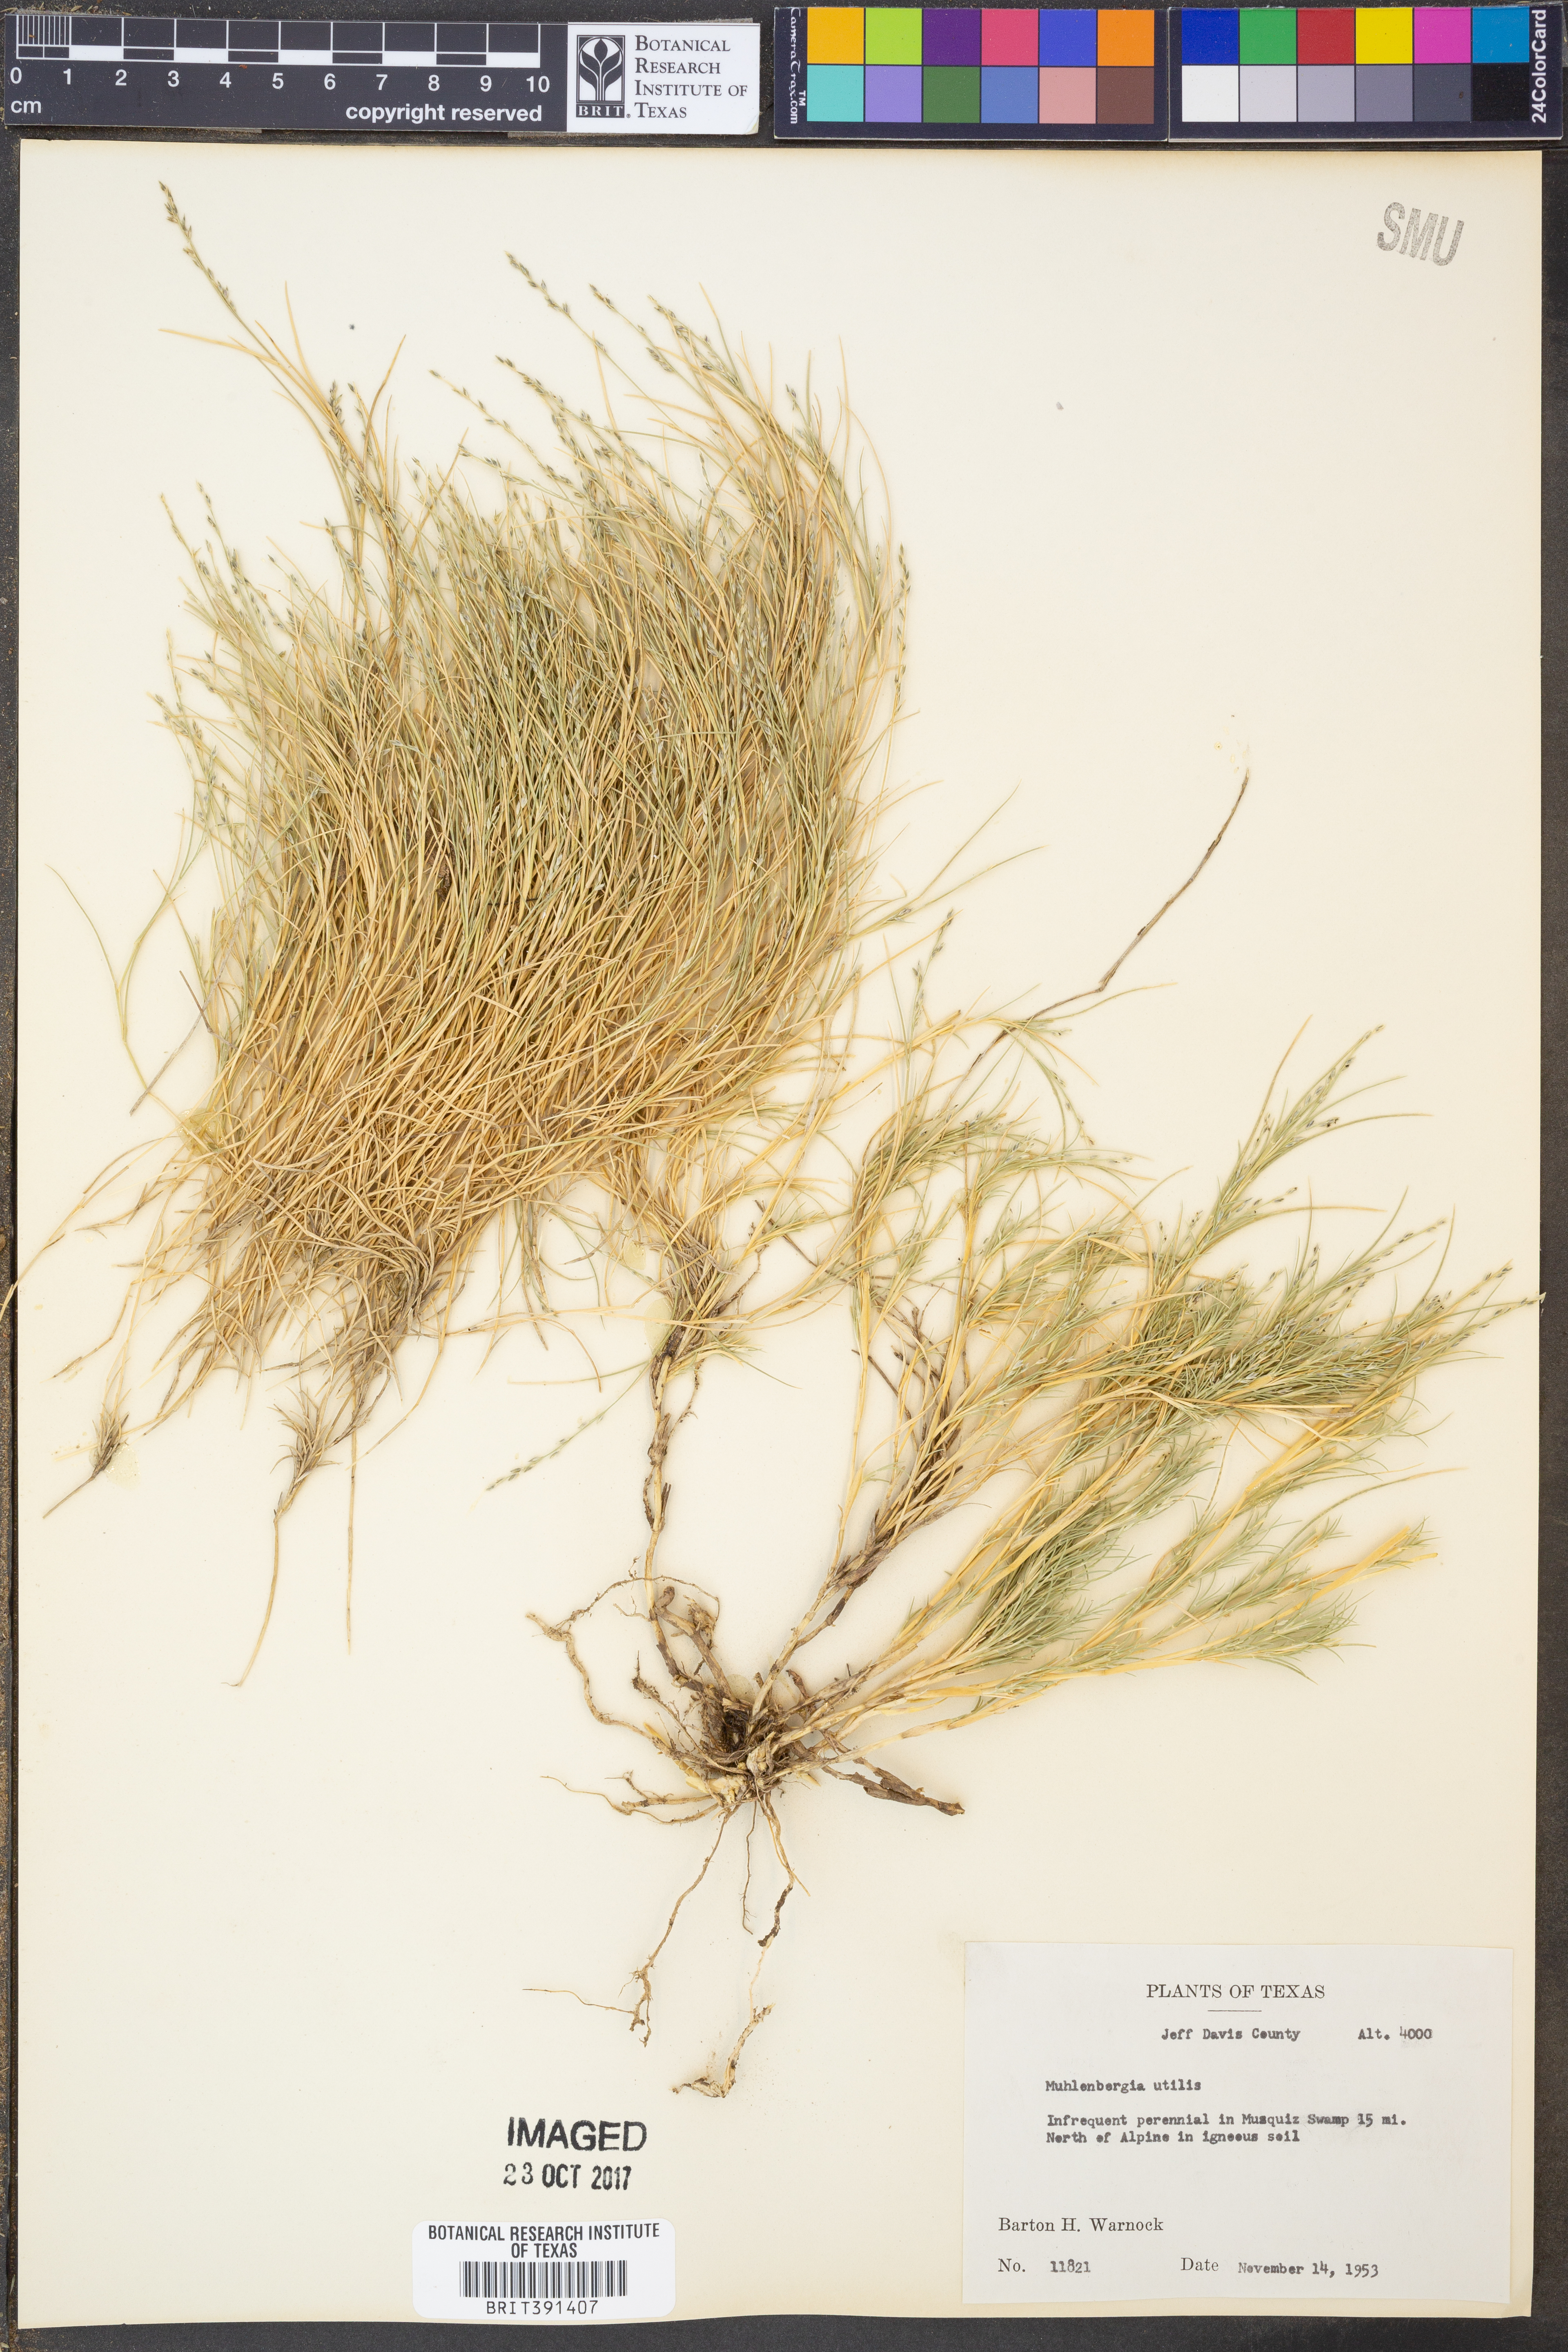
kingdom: Plantae
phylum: Tracheophyta
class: Liliopsida
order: Poales
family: Poaceae
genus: Muhlenbergia
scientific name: Muhlenbergia utilis
